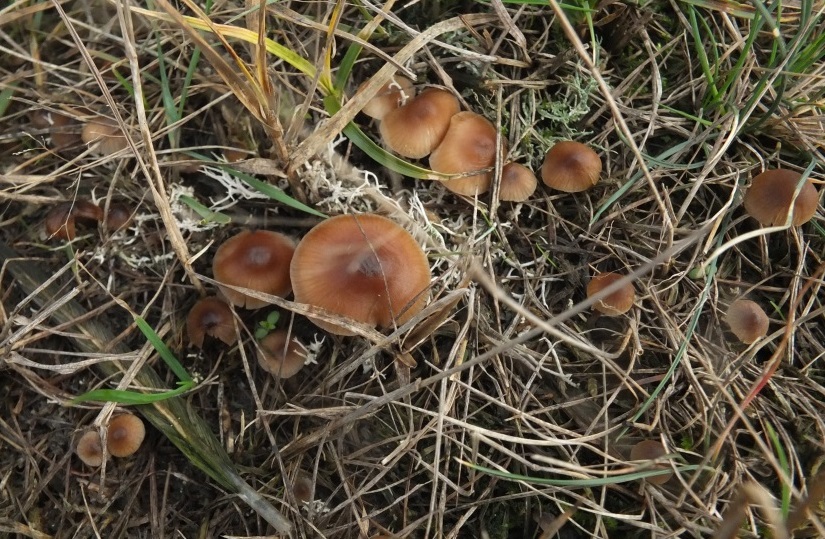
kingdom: Fungi
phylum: Basidiomycota
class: Agaricomycetes
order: Agaricales
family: Lyophyllaceae
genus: Sagaranella
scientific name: Sagaranella tylicolor
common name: kvælstof-gråblad
